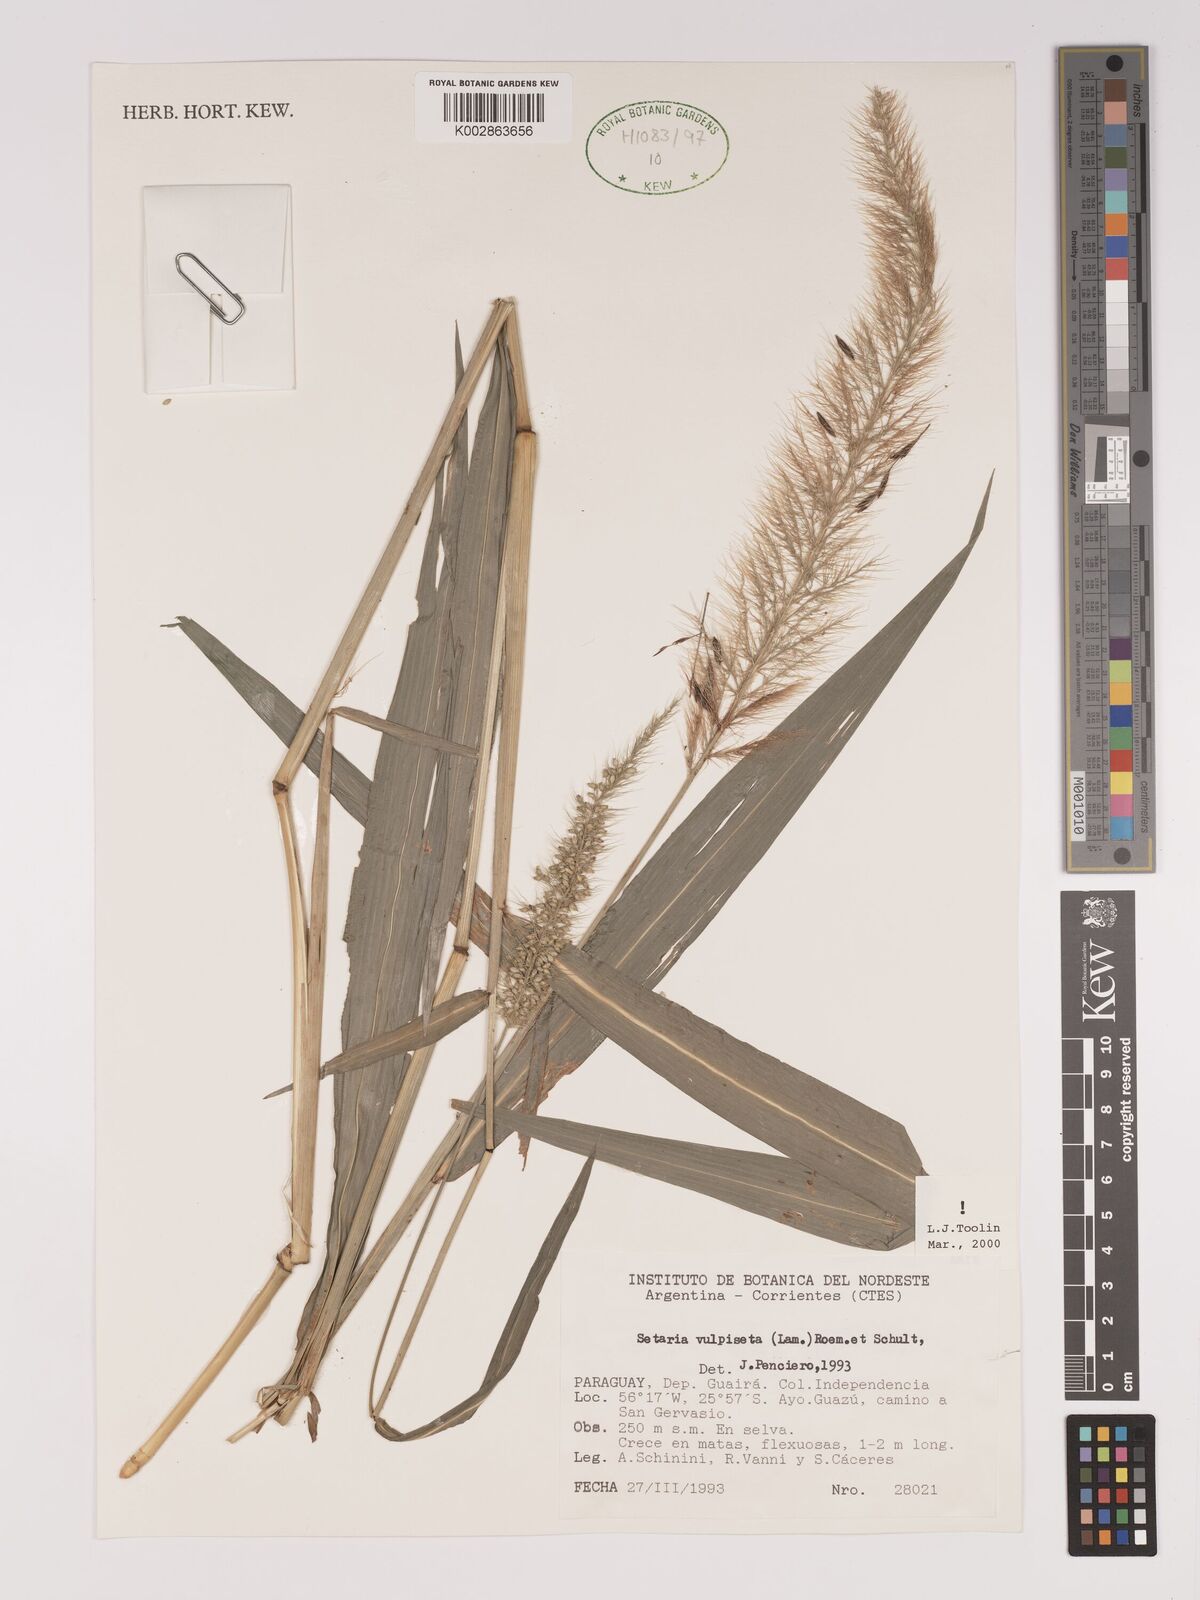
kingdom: Plantae
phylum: Tracheophyta
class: Liliopsida
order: Poales
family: Poaceae
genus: Setaria
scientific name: Setaria vulpiseta
